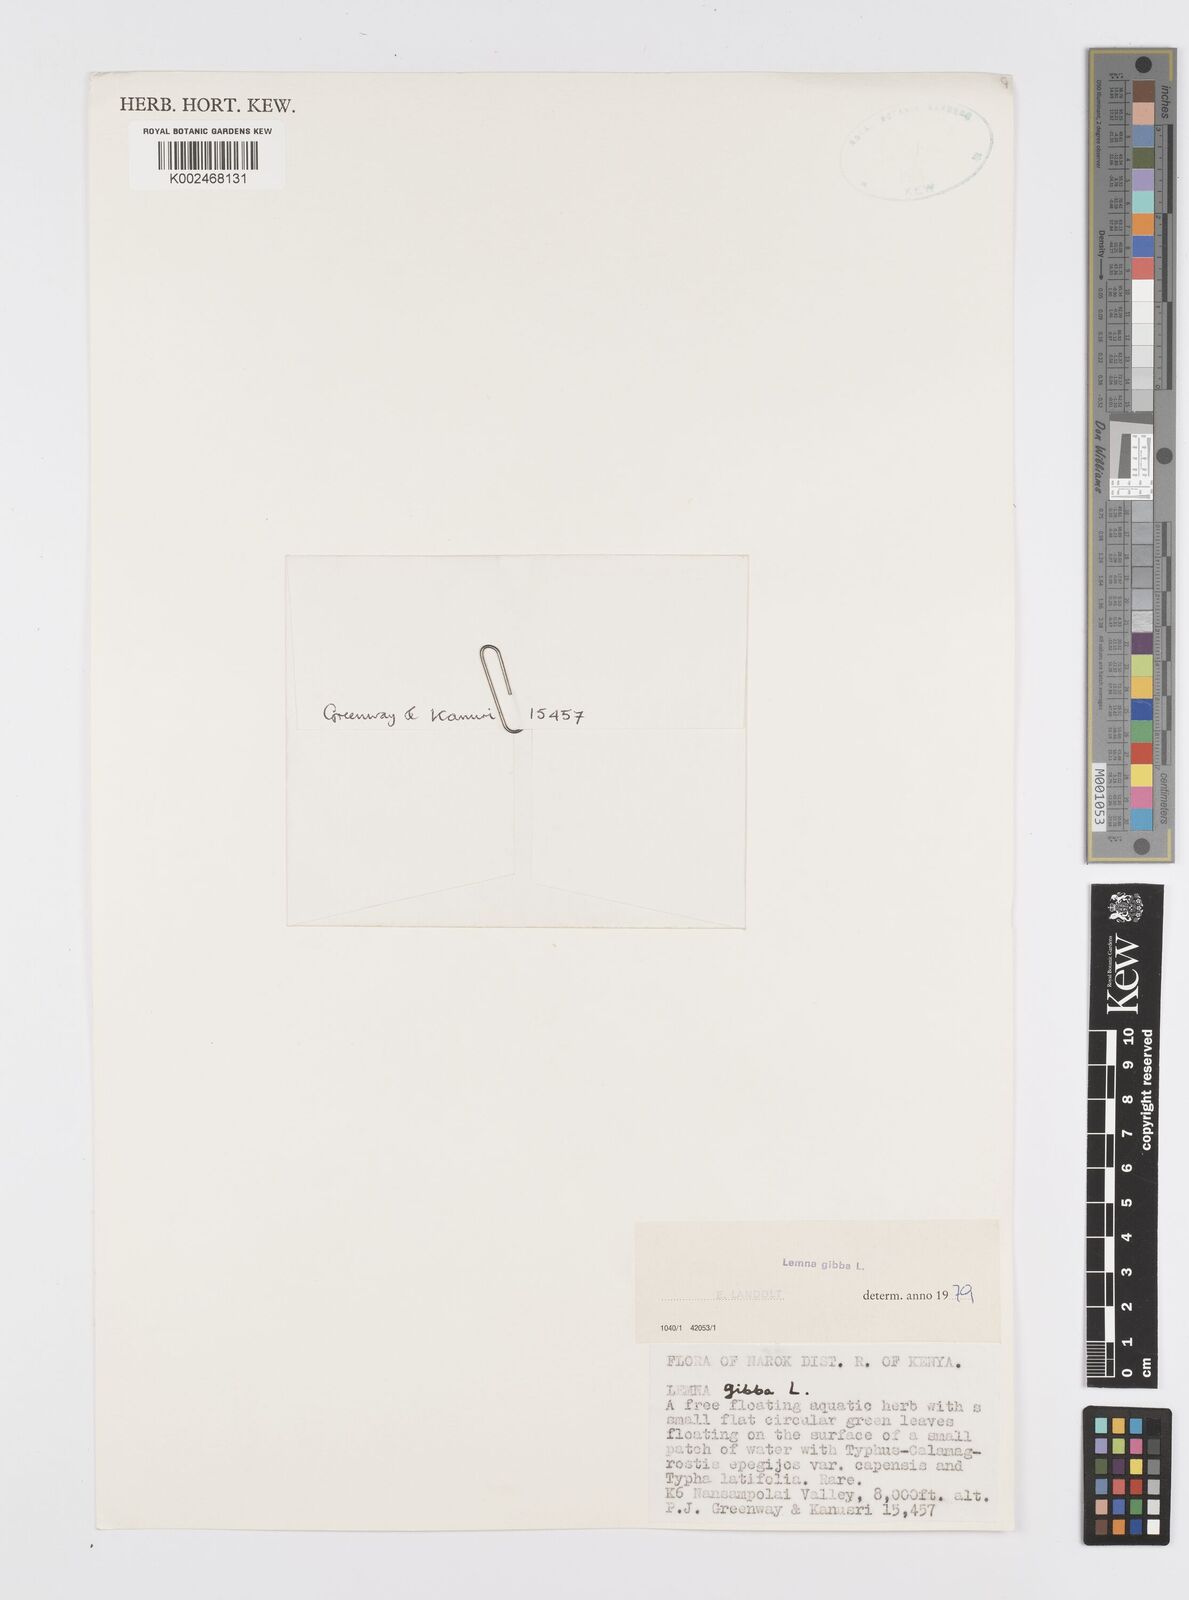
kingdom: Plantae
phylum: Tracheophyta
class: Liliopsida
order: Alismatales
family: Araceae
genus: Lemna
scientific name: Lemna gibba
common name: Fat duckweed
